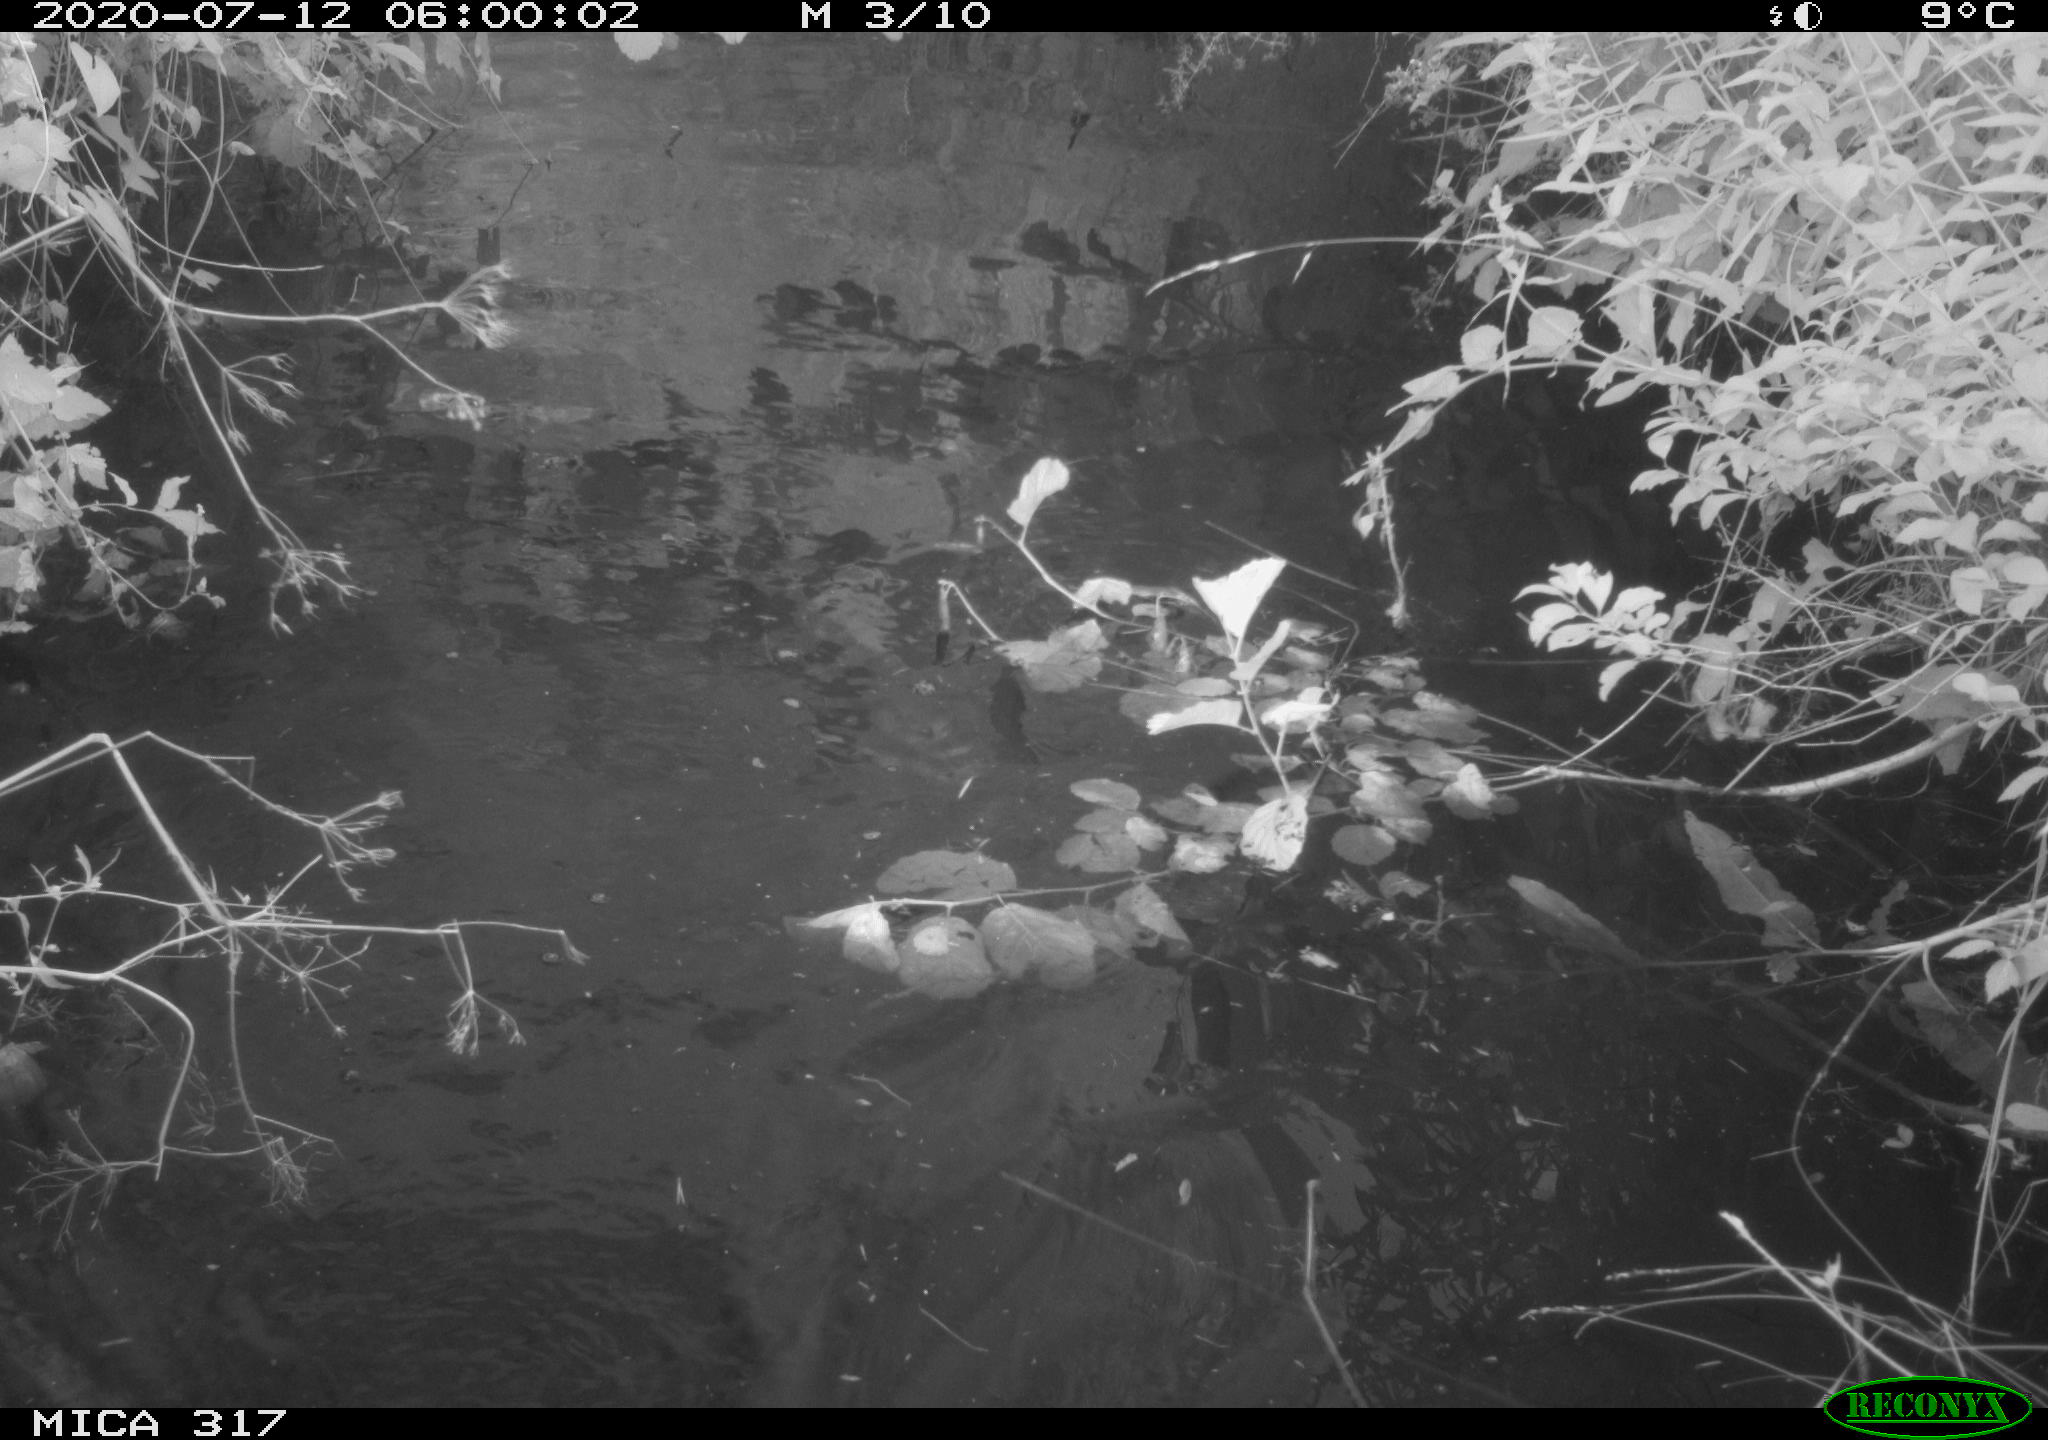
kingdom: Animalia
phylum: Chordata
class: Aves
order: Anseriformes
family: Anatidae
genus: Anas
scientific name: Anas platyrhynchos
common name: Mallard
